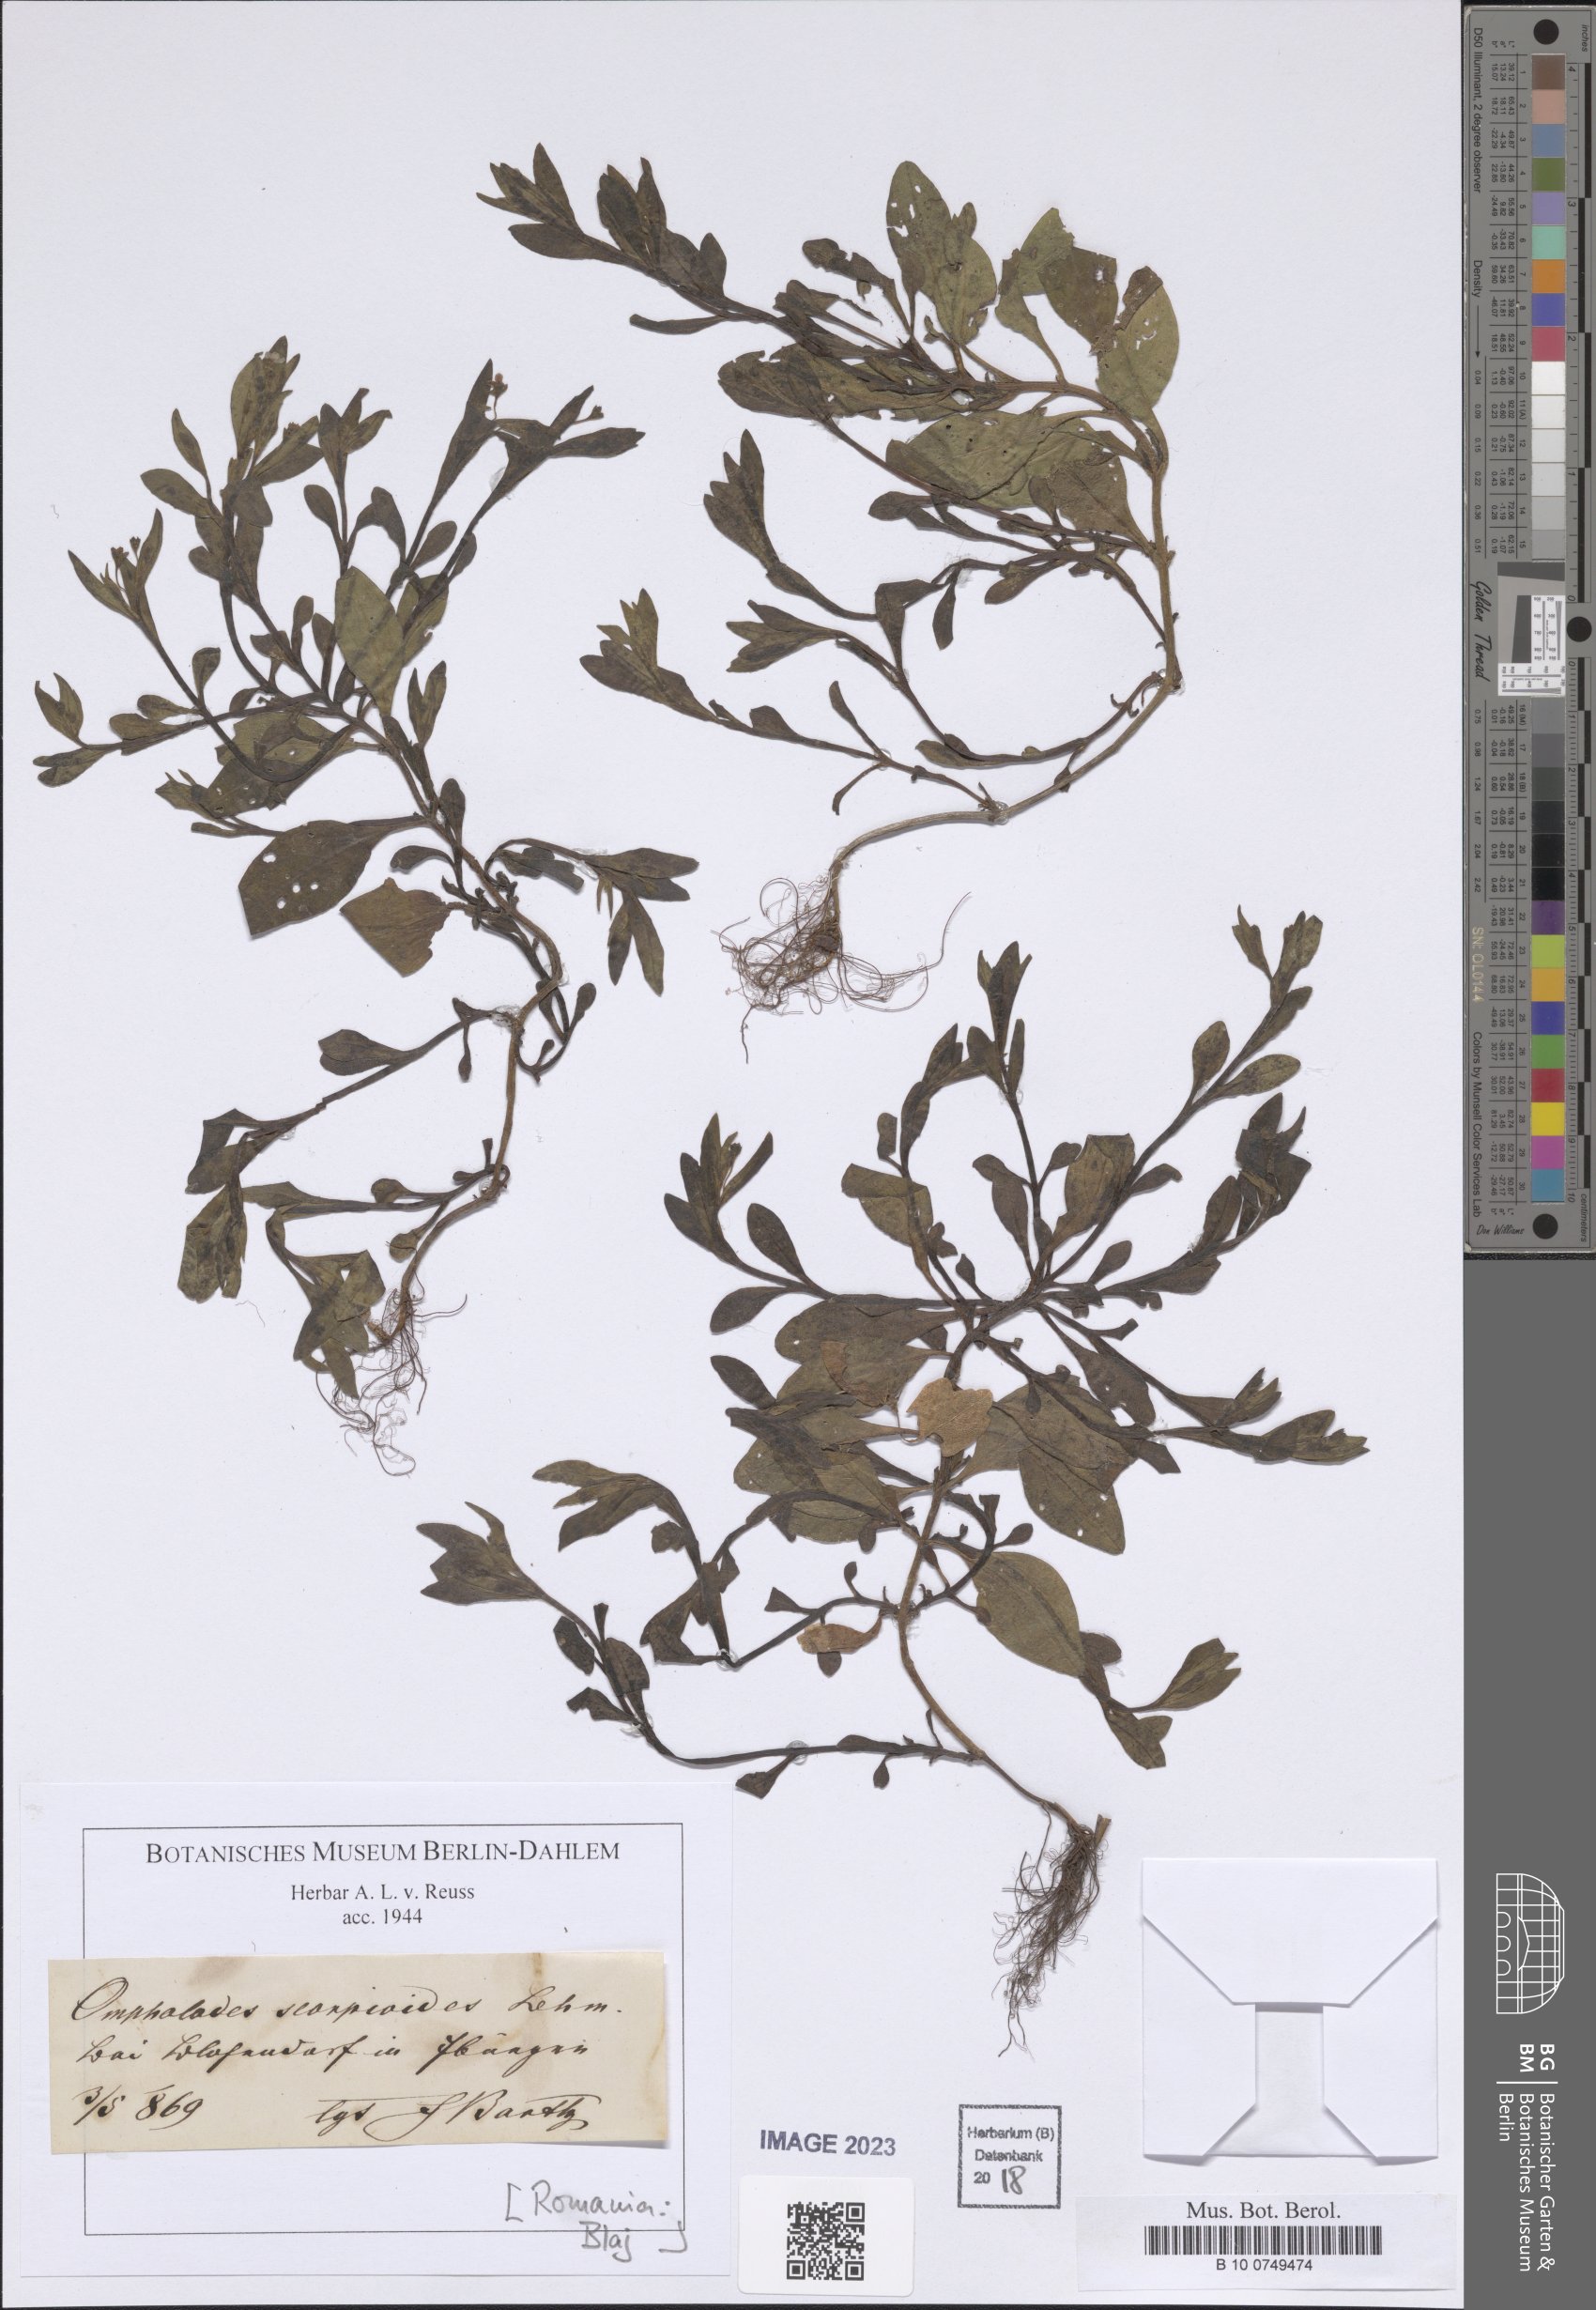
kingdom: Plantae
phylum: Tracheophyta
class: Magnoliopsida
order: Boraginales
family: Boraginaceae
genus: Memoremea
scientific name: Memoremea scorpioides
